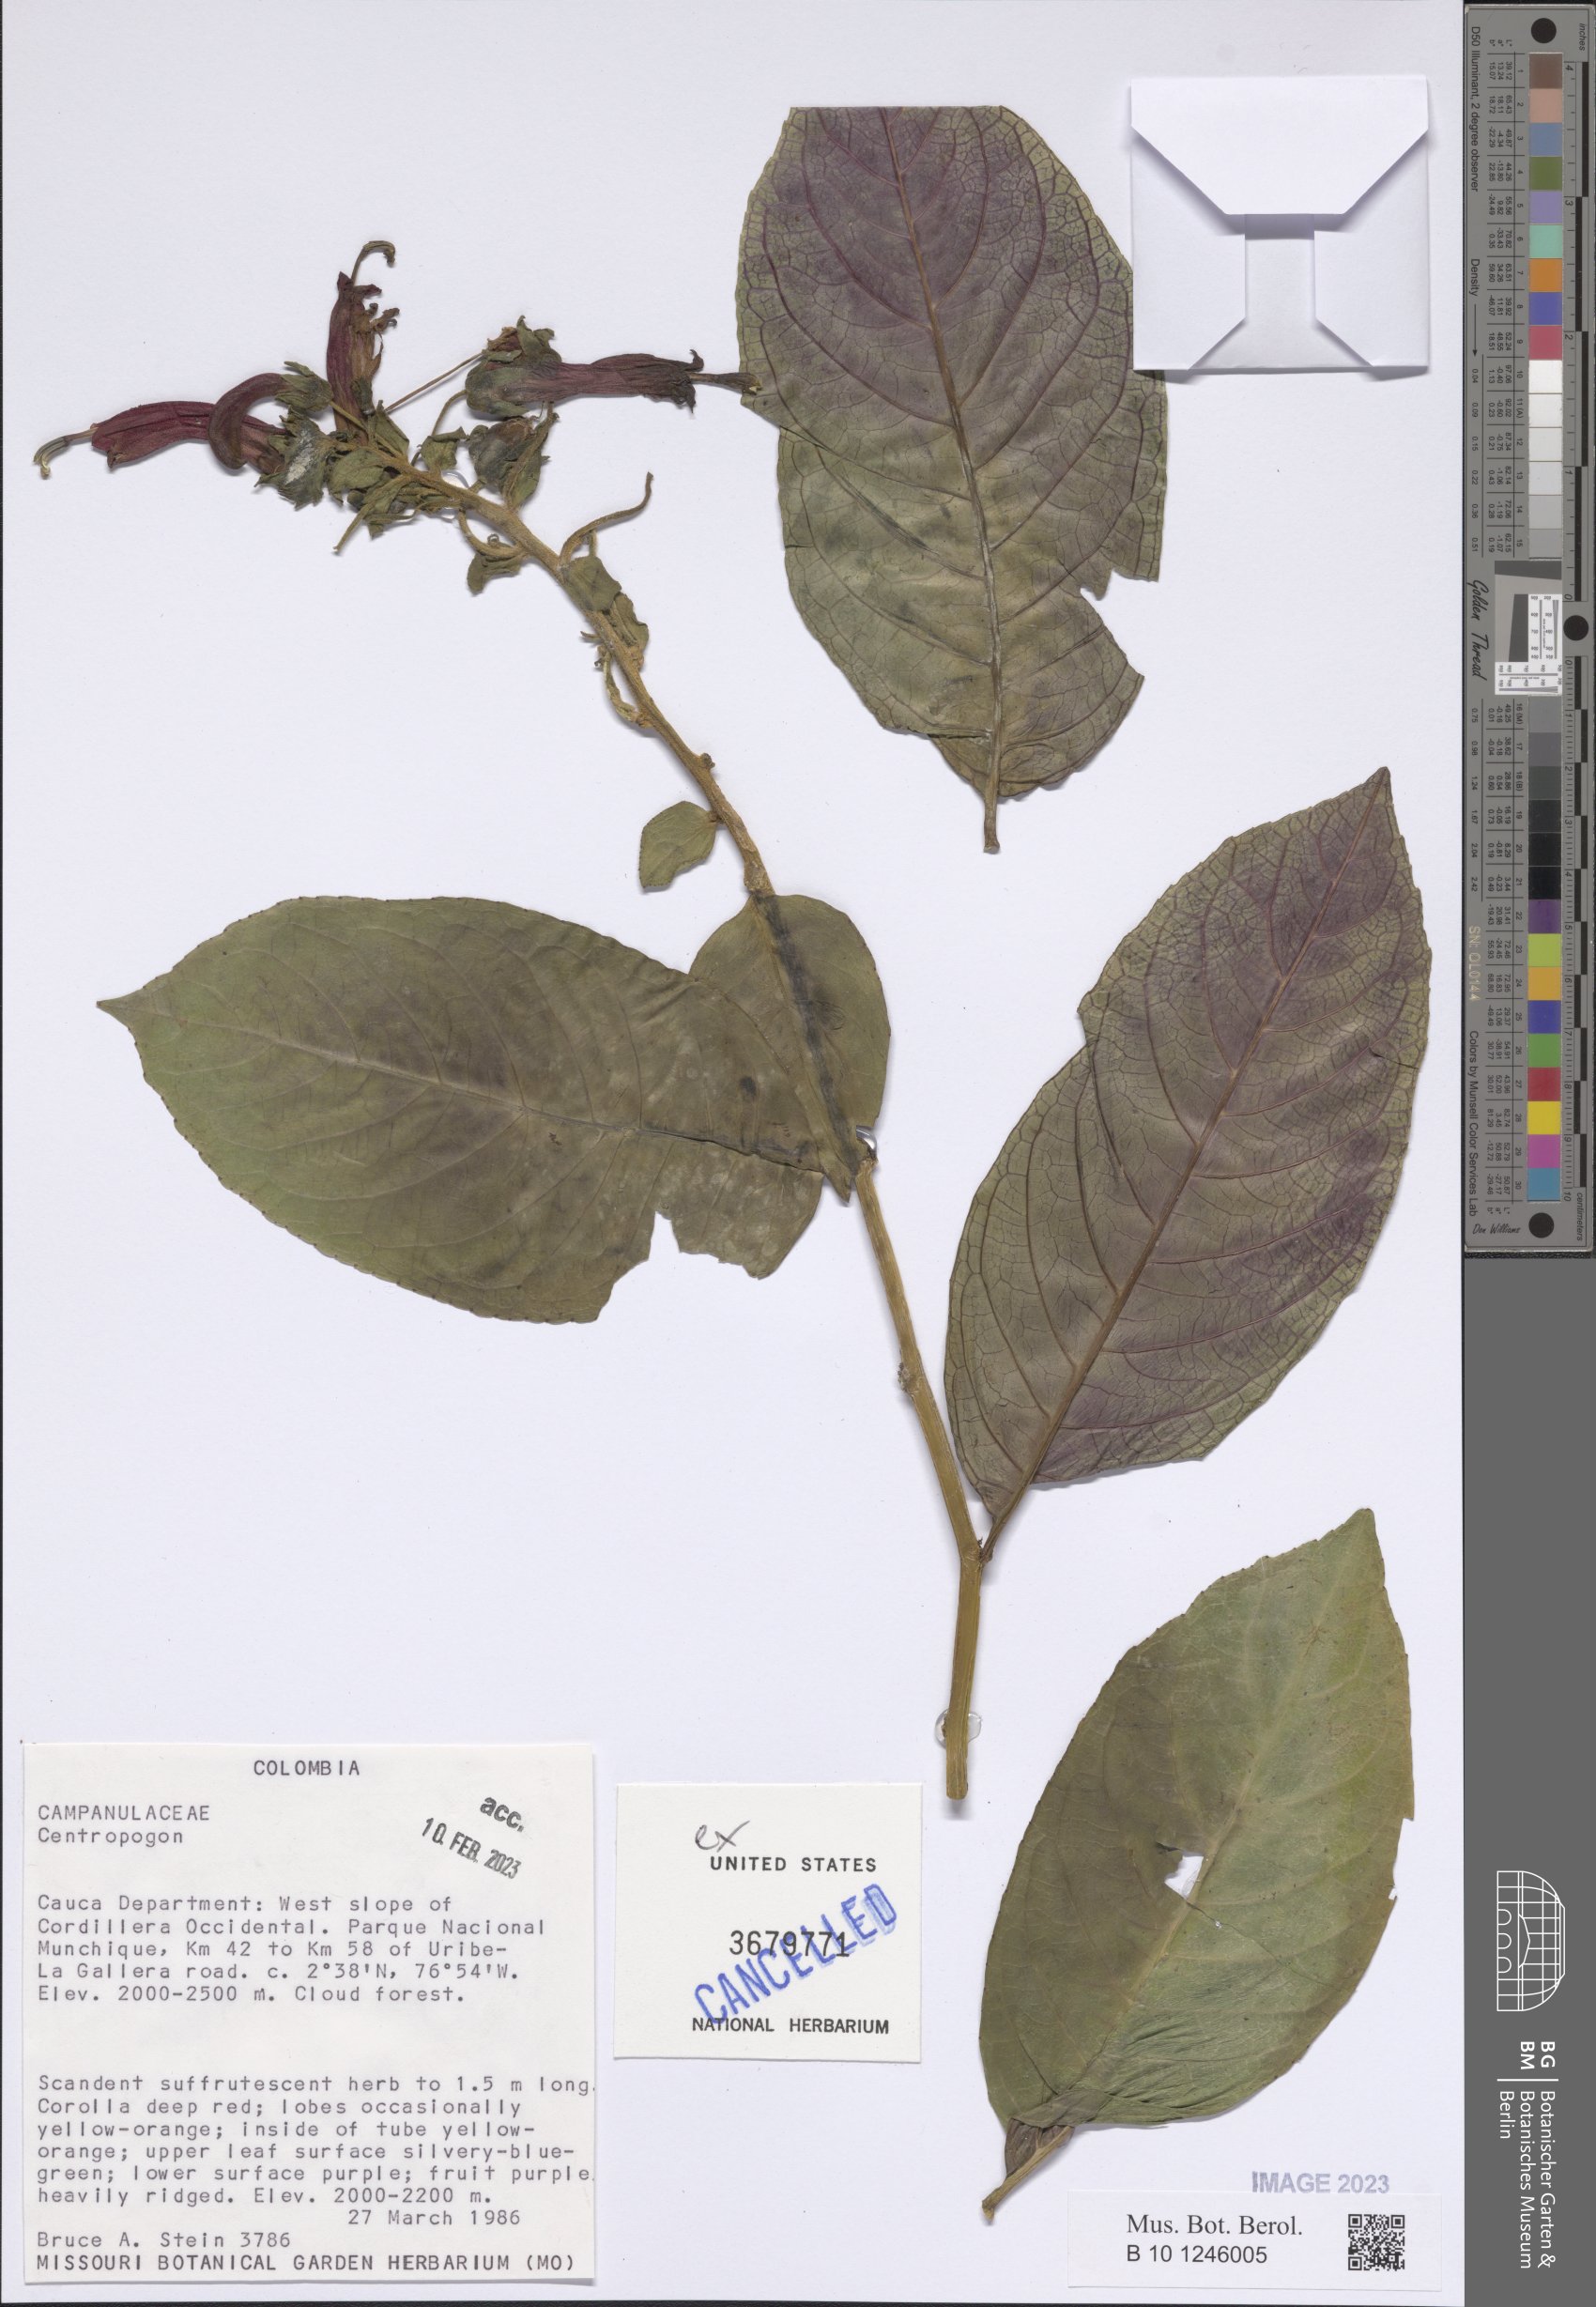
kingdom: Plantae
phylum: Tracheophyta
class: Magnoliopsida
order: Asterales
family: Campanulaceae
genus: Centropogon
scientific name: Centropogon
